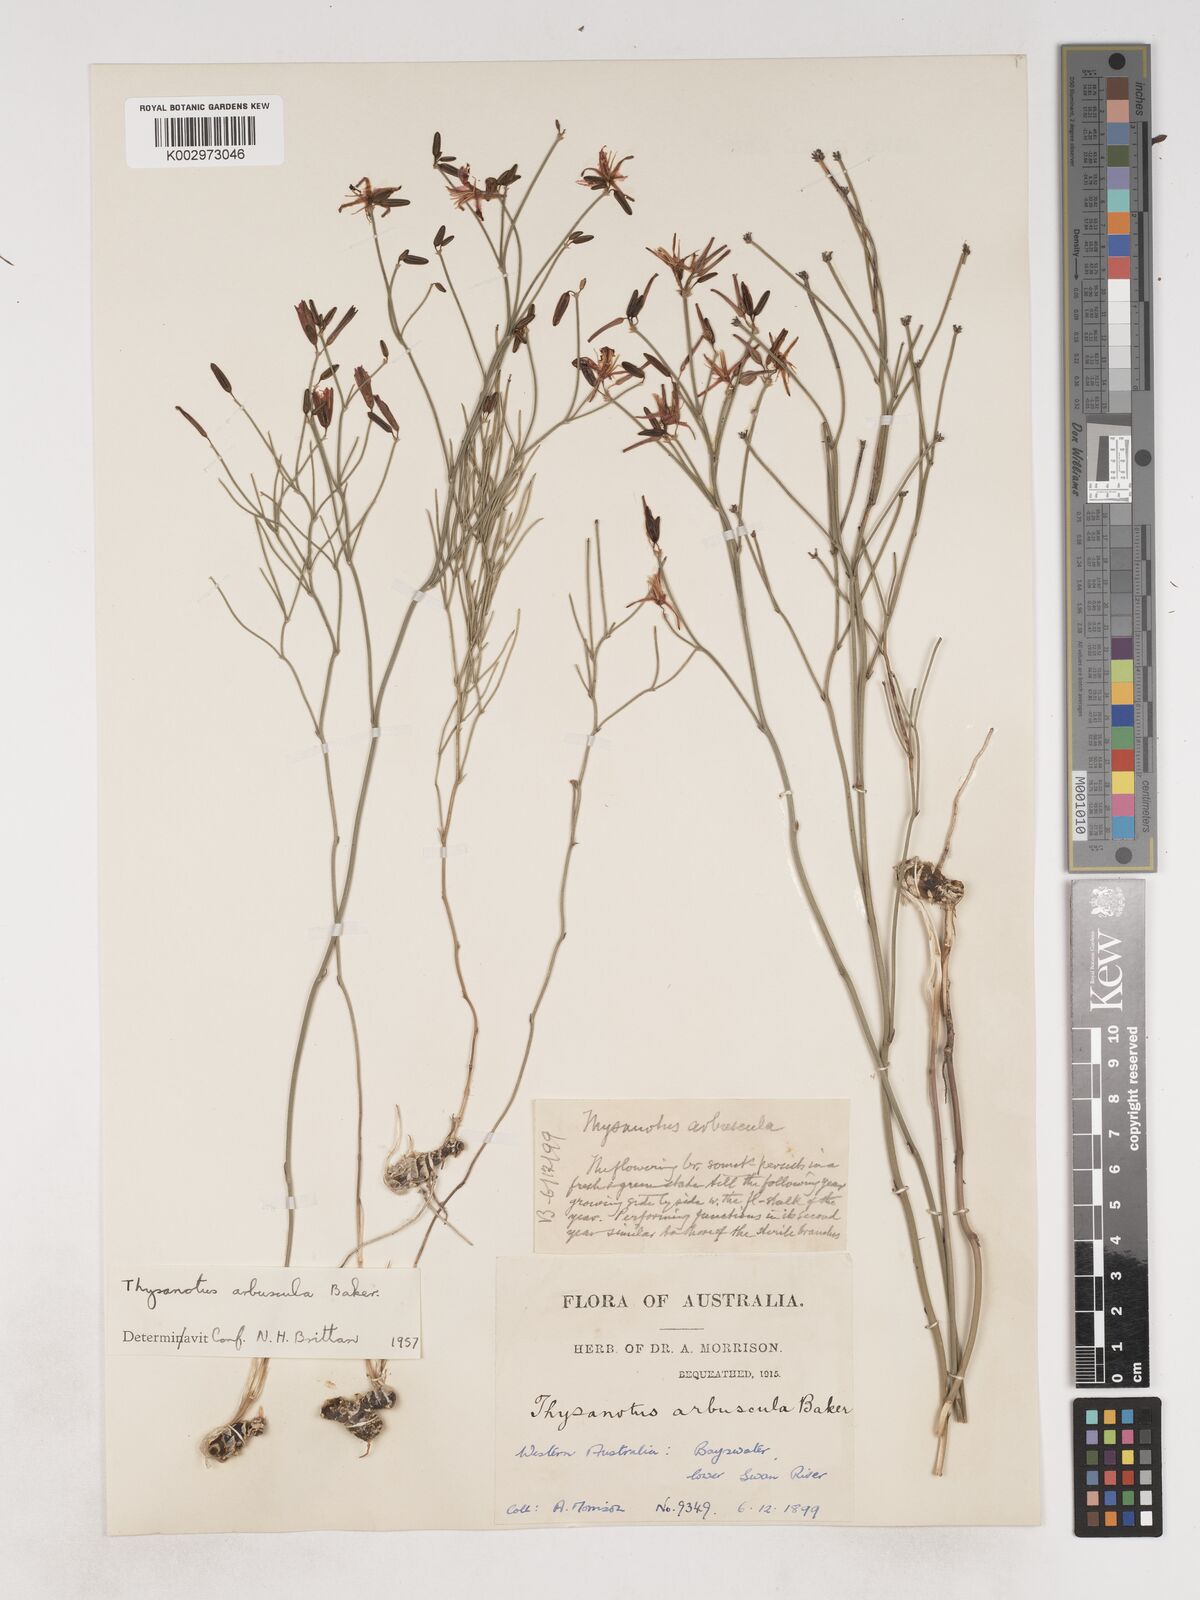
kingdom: Plantae
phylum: Tracheophyta
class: Liliopsida
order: Asparagales
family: Asparagaceae
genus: Thysanotus
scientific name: Thysanotus arbuscula
